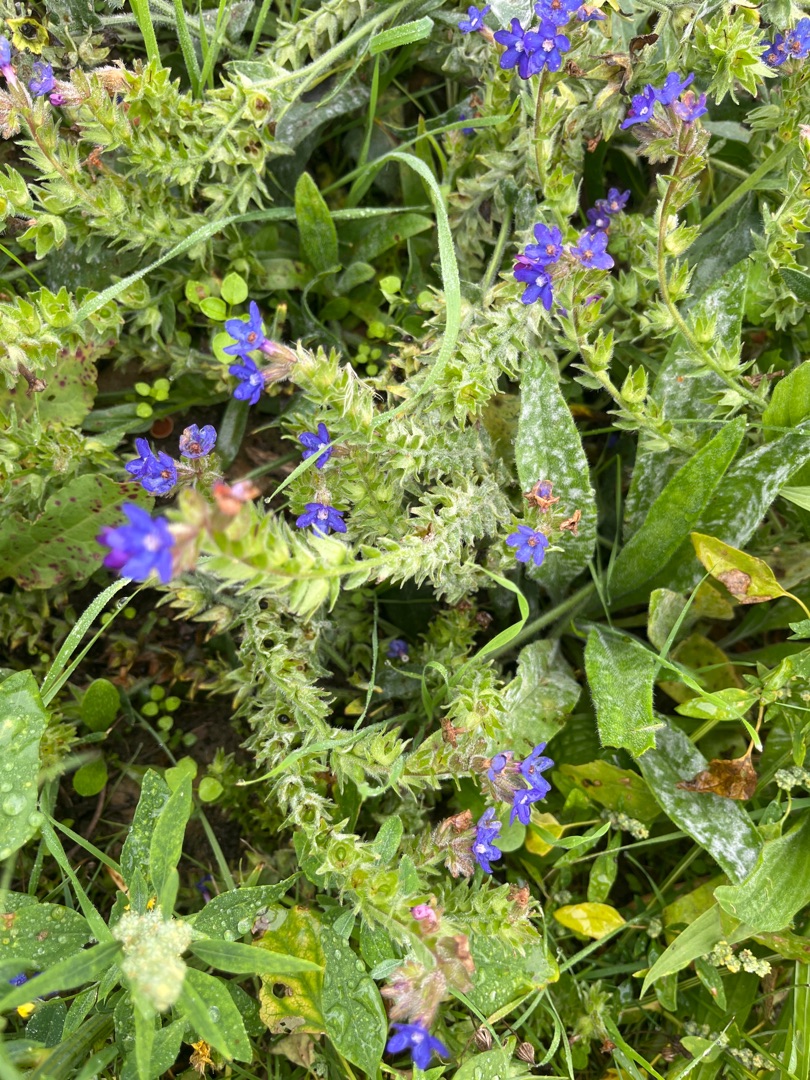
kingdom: Plantae
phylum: Tracheophyta
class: Magnoliopsida
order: Boraginales
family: Boraginaceae
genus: Anchusa
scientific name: Anchusa officinalis
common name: Læge-oksetunge
